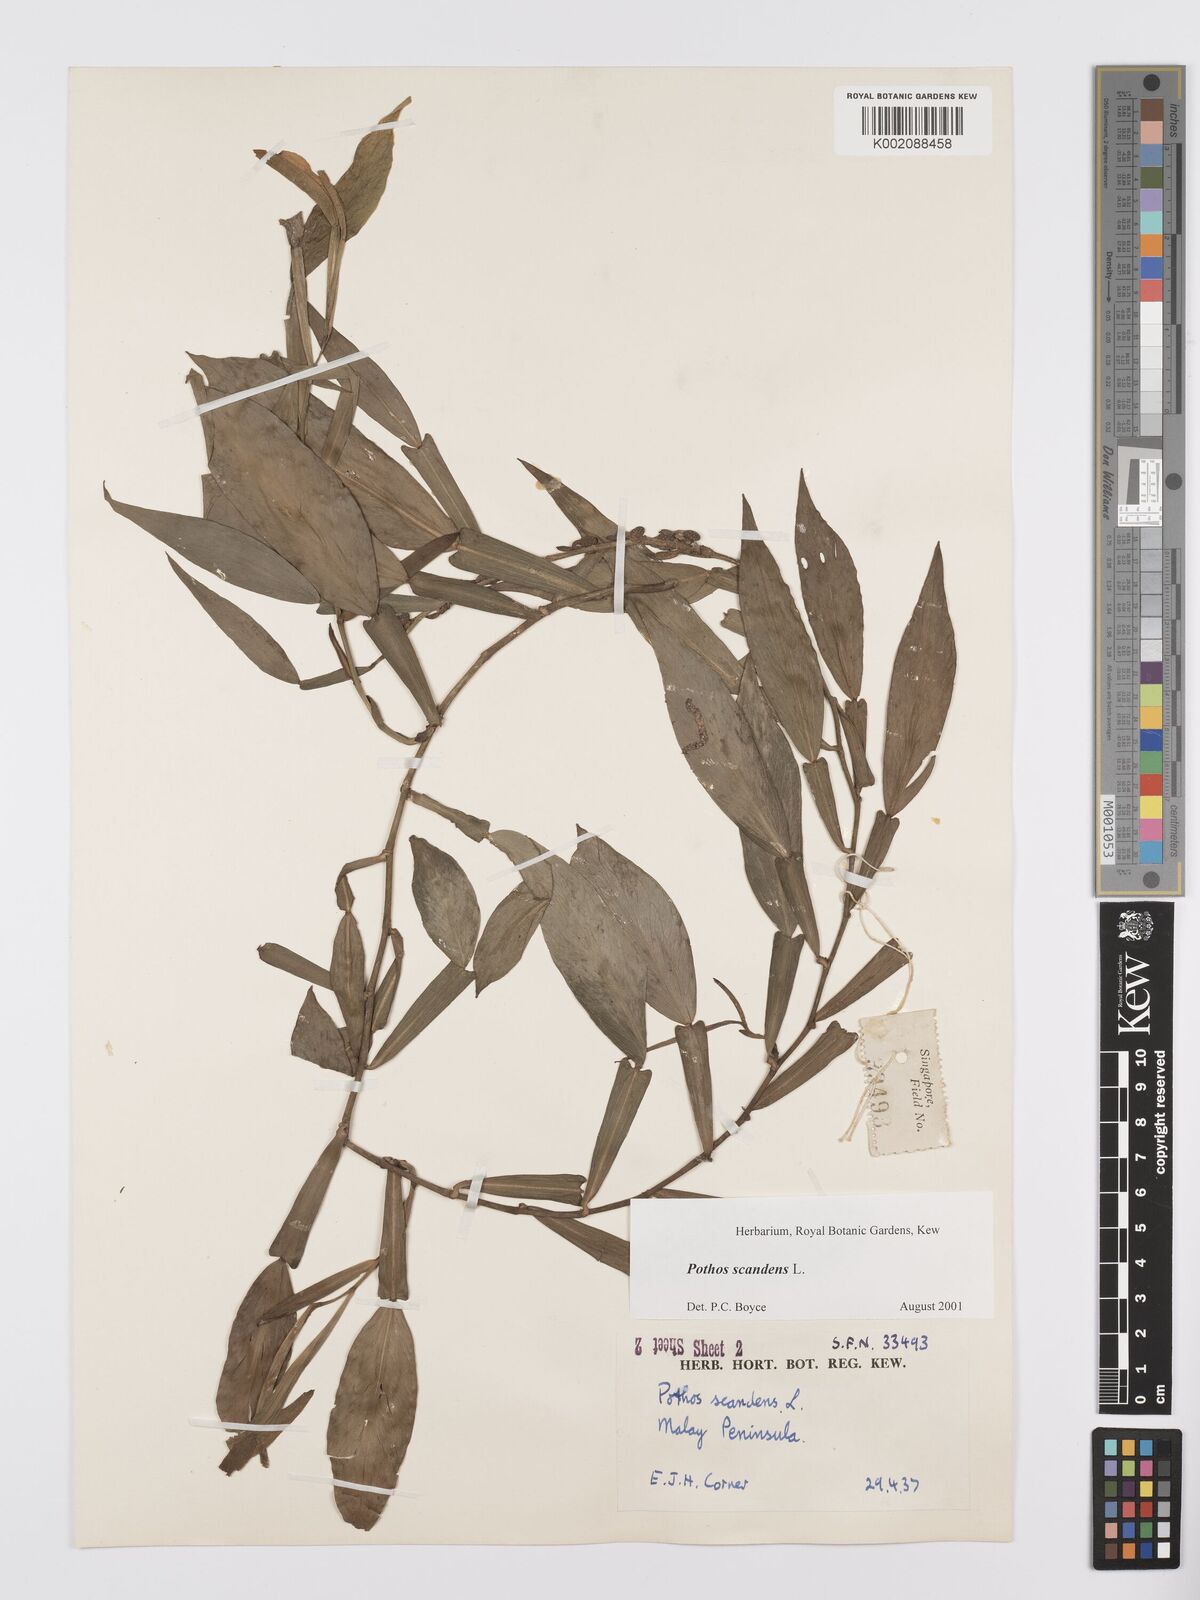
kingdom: Plantae
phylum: Tracheophyta
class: Liliopsida
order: Alismatales
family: Araceae
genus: Pothos
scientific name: Pothos scandens
